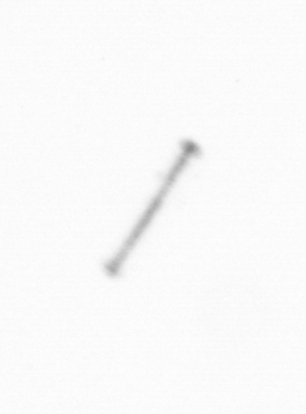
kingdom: Chromista
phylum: Ochrophyta
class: Bacillariophyceae
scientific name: Bacillariophyceae
